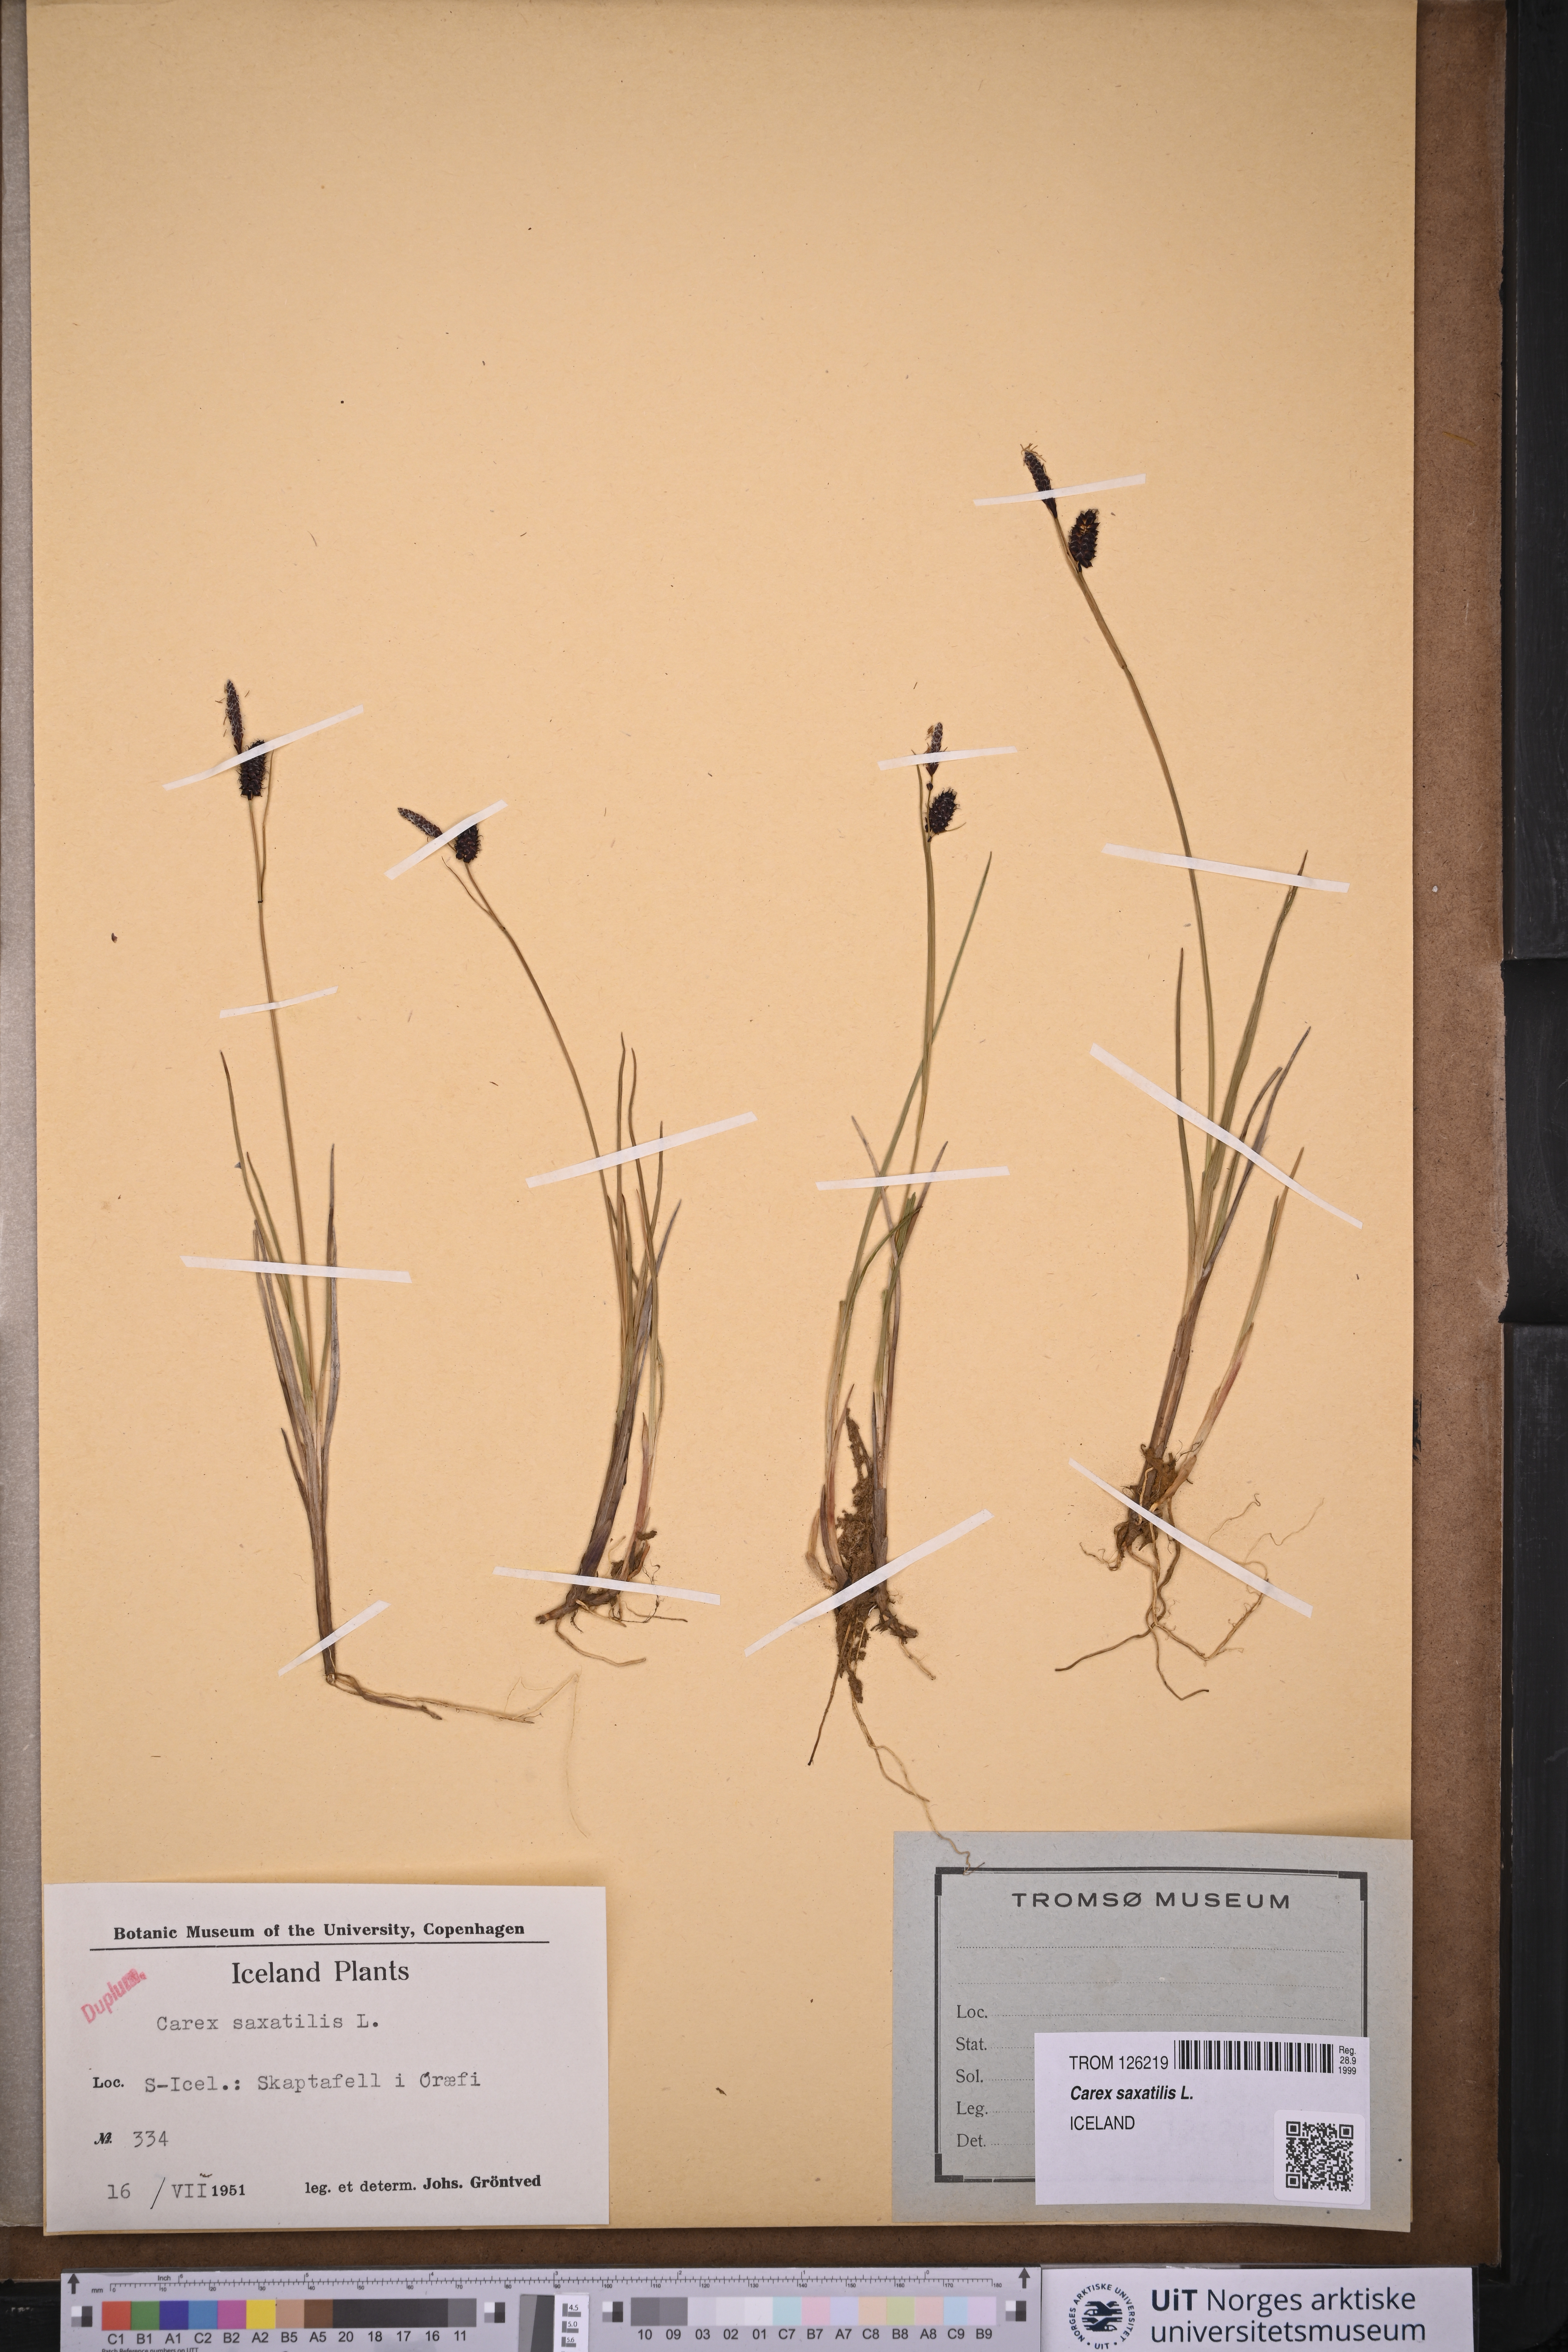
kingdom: Plantae
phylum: Tracheophyta
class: Liliopsida
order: Poales
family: Cyperaceae
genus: Carex
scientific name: Carex saxatilis
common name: Russet sedge
